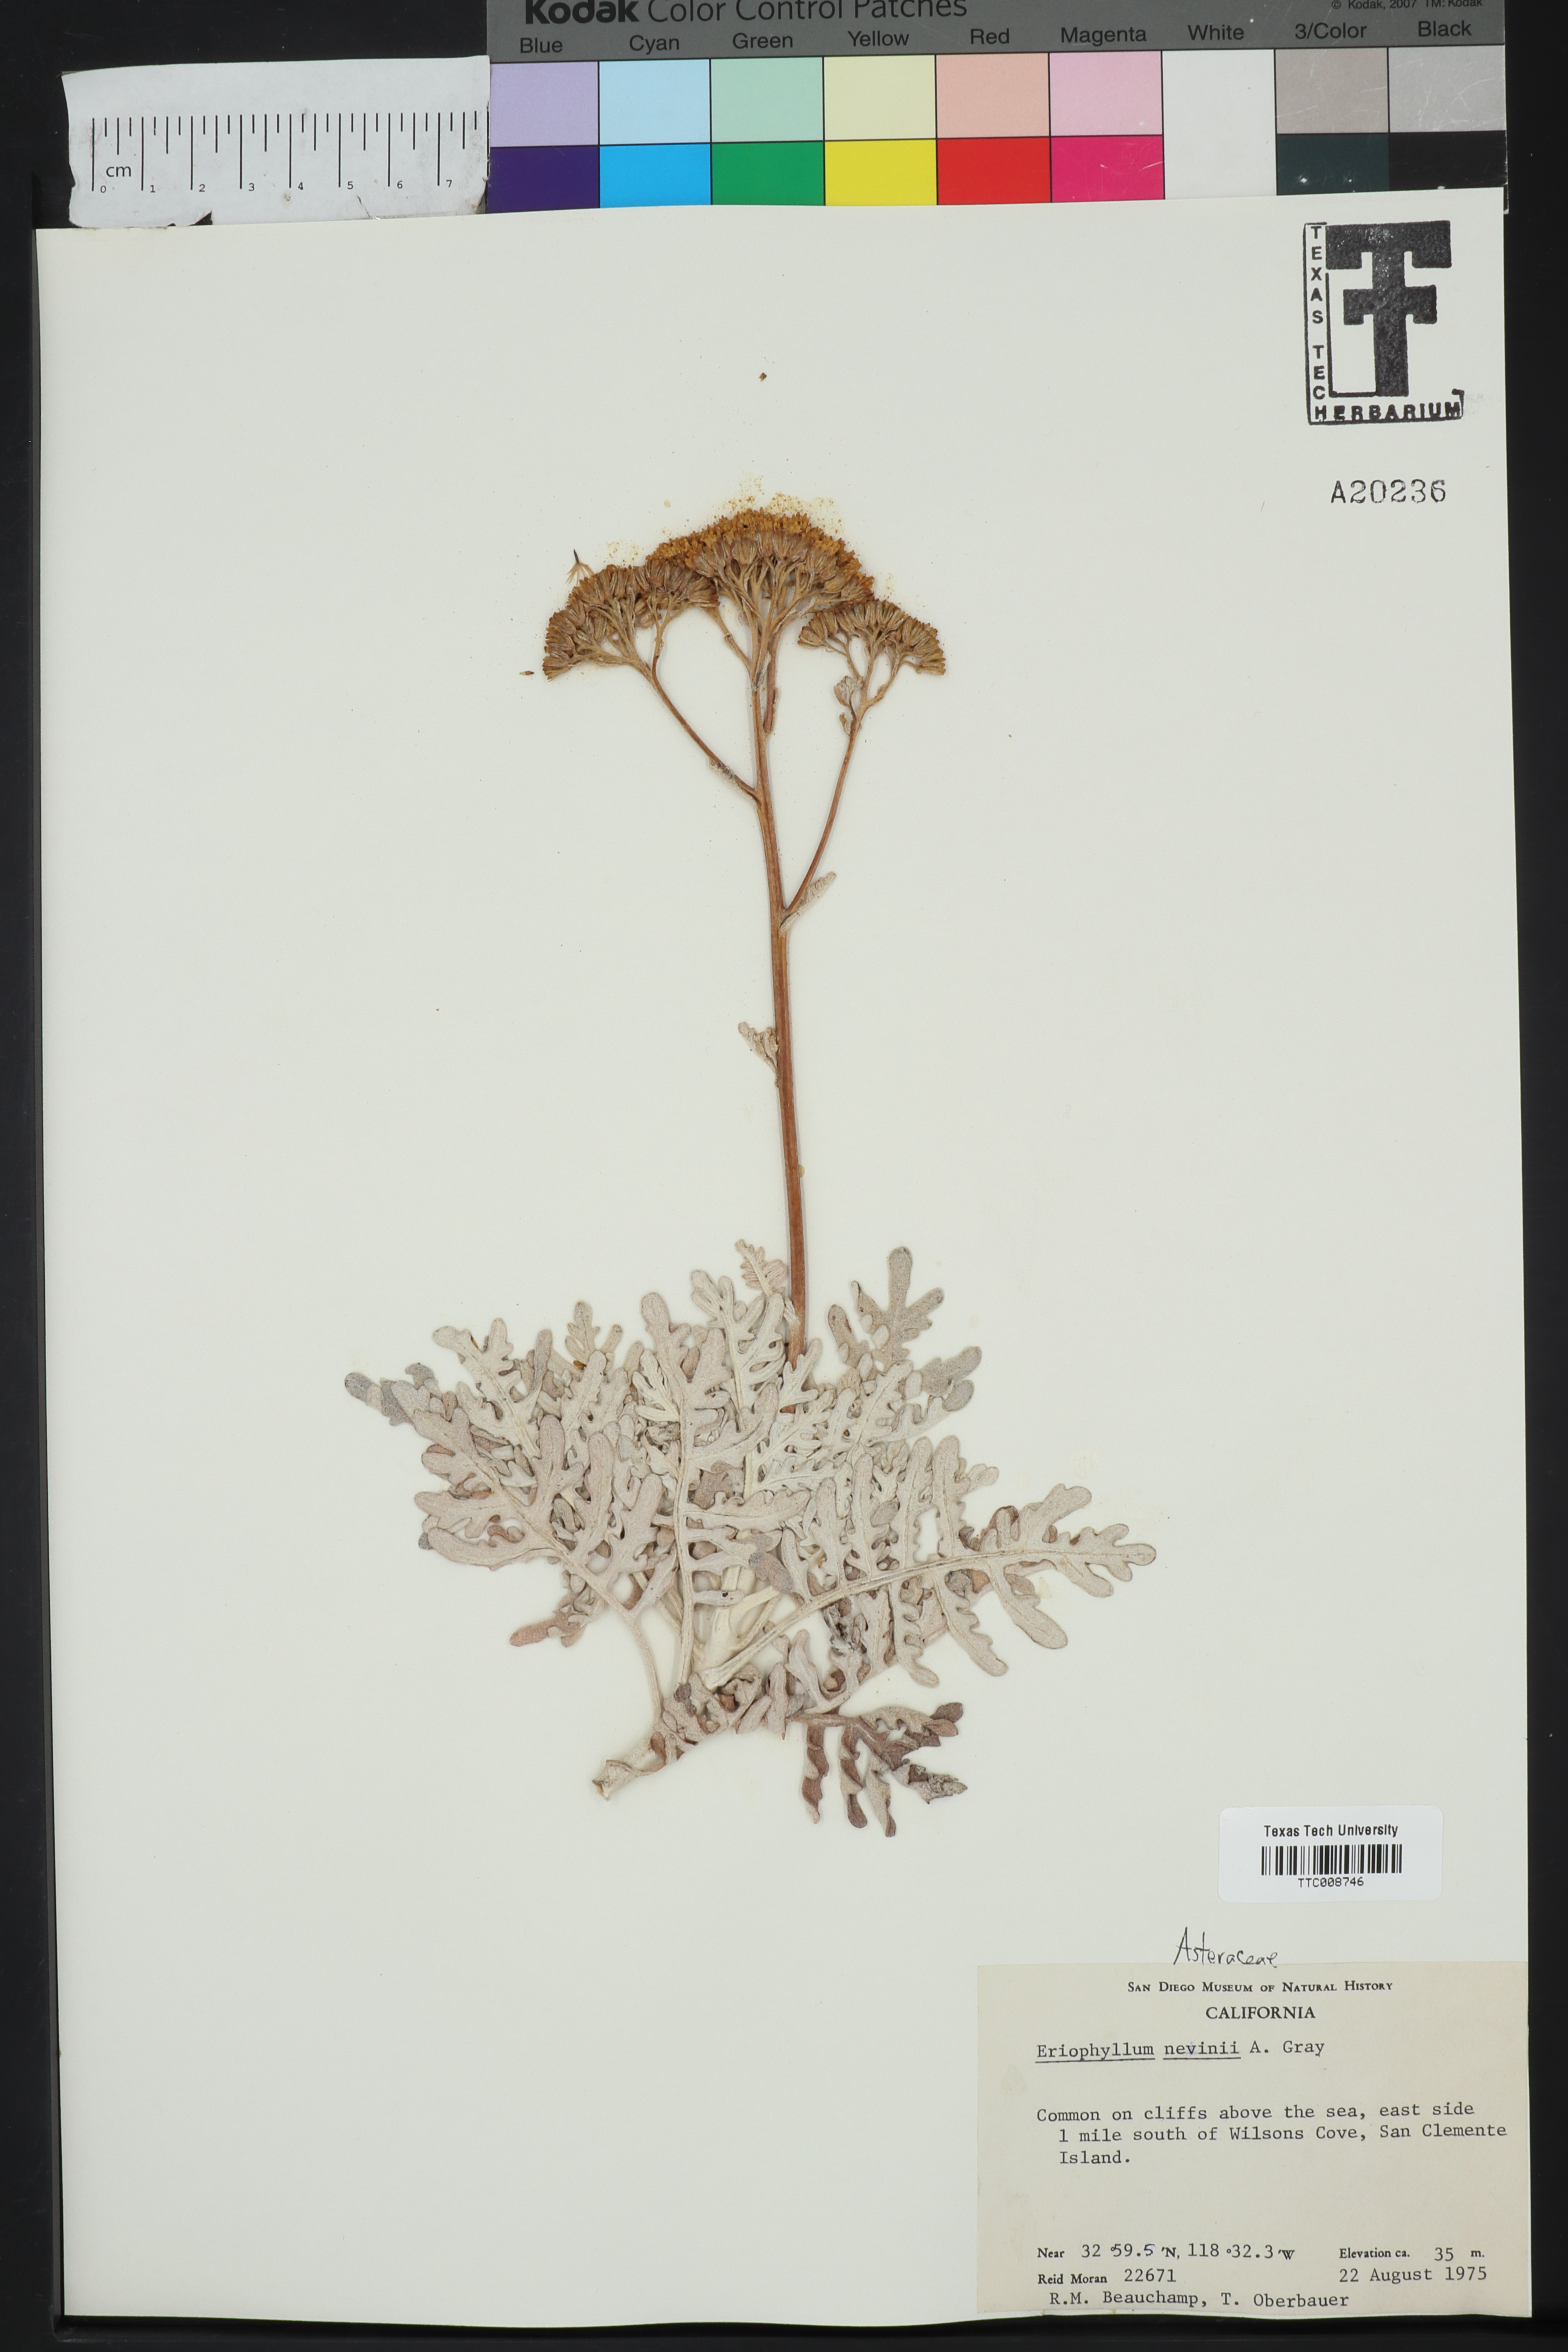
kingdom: Plantae
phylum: Tracheophyta
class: Magnoliopsida
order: Asterales
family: Asteraceae
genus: Constancea
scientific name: Constancea nevinii
